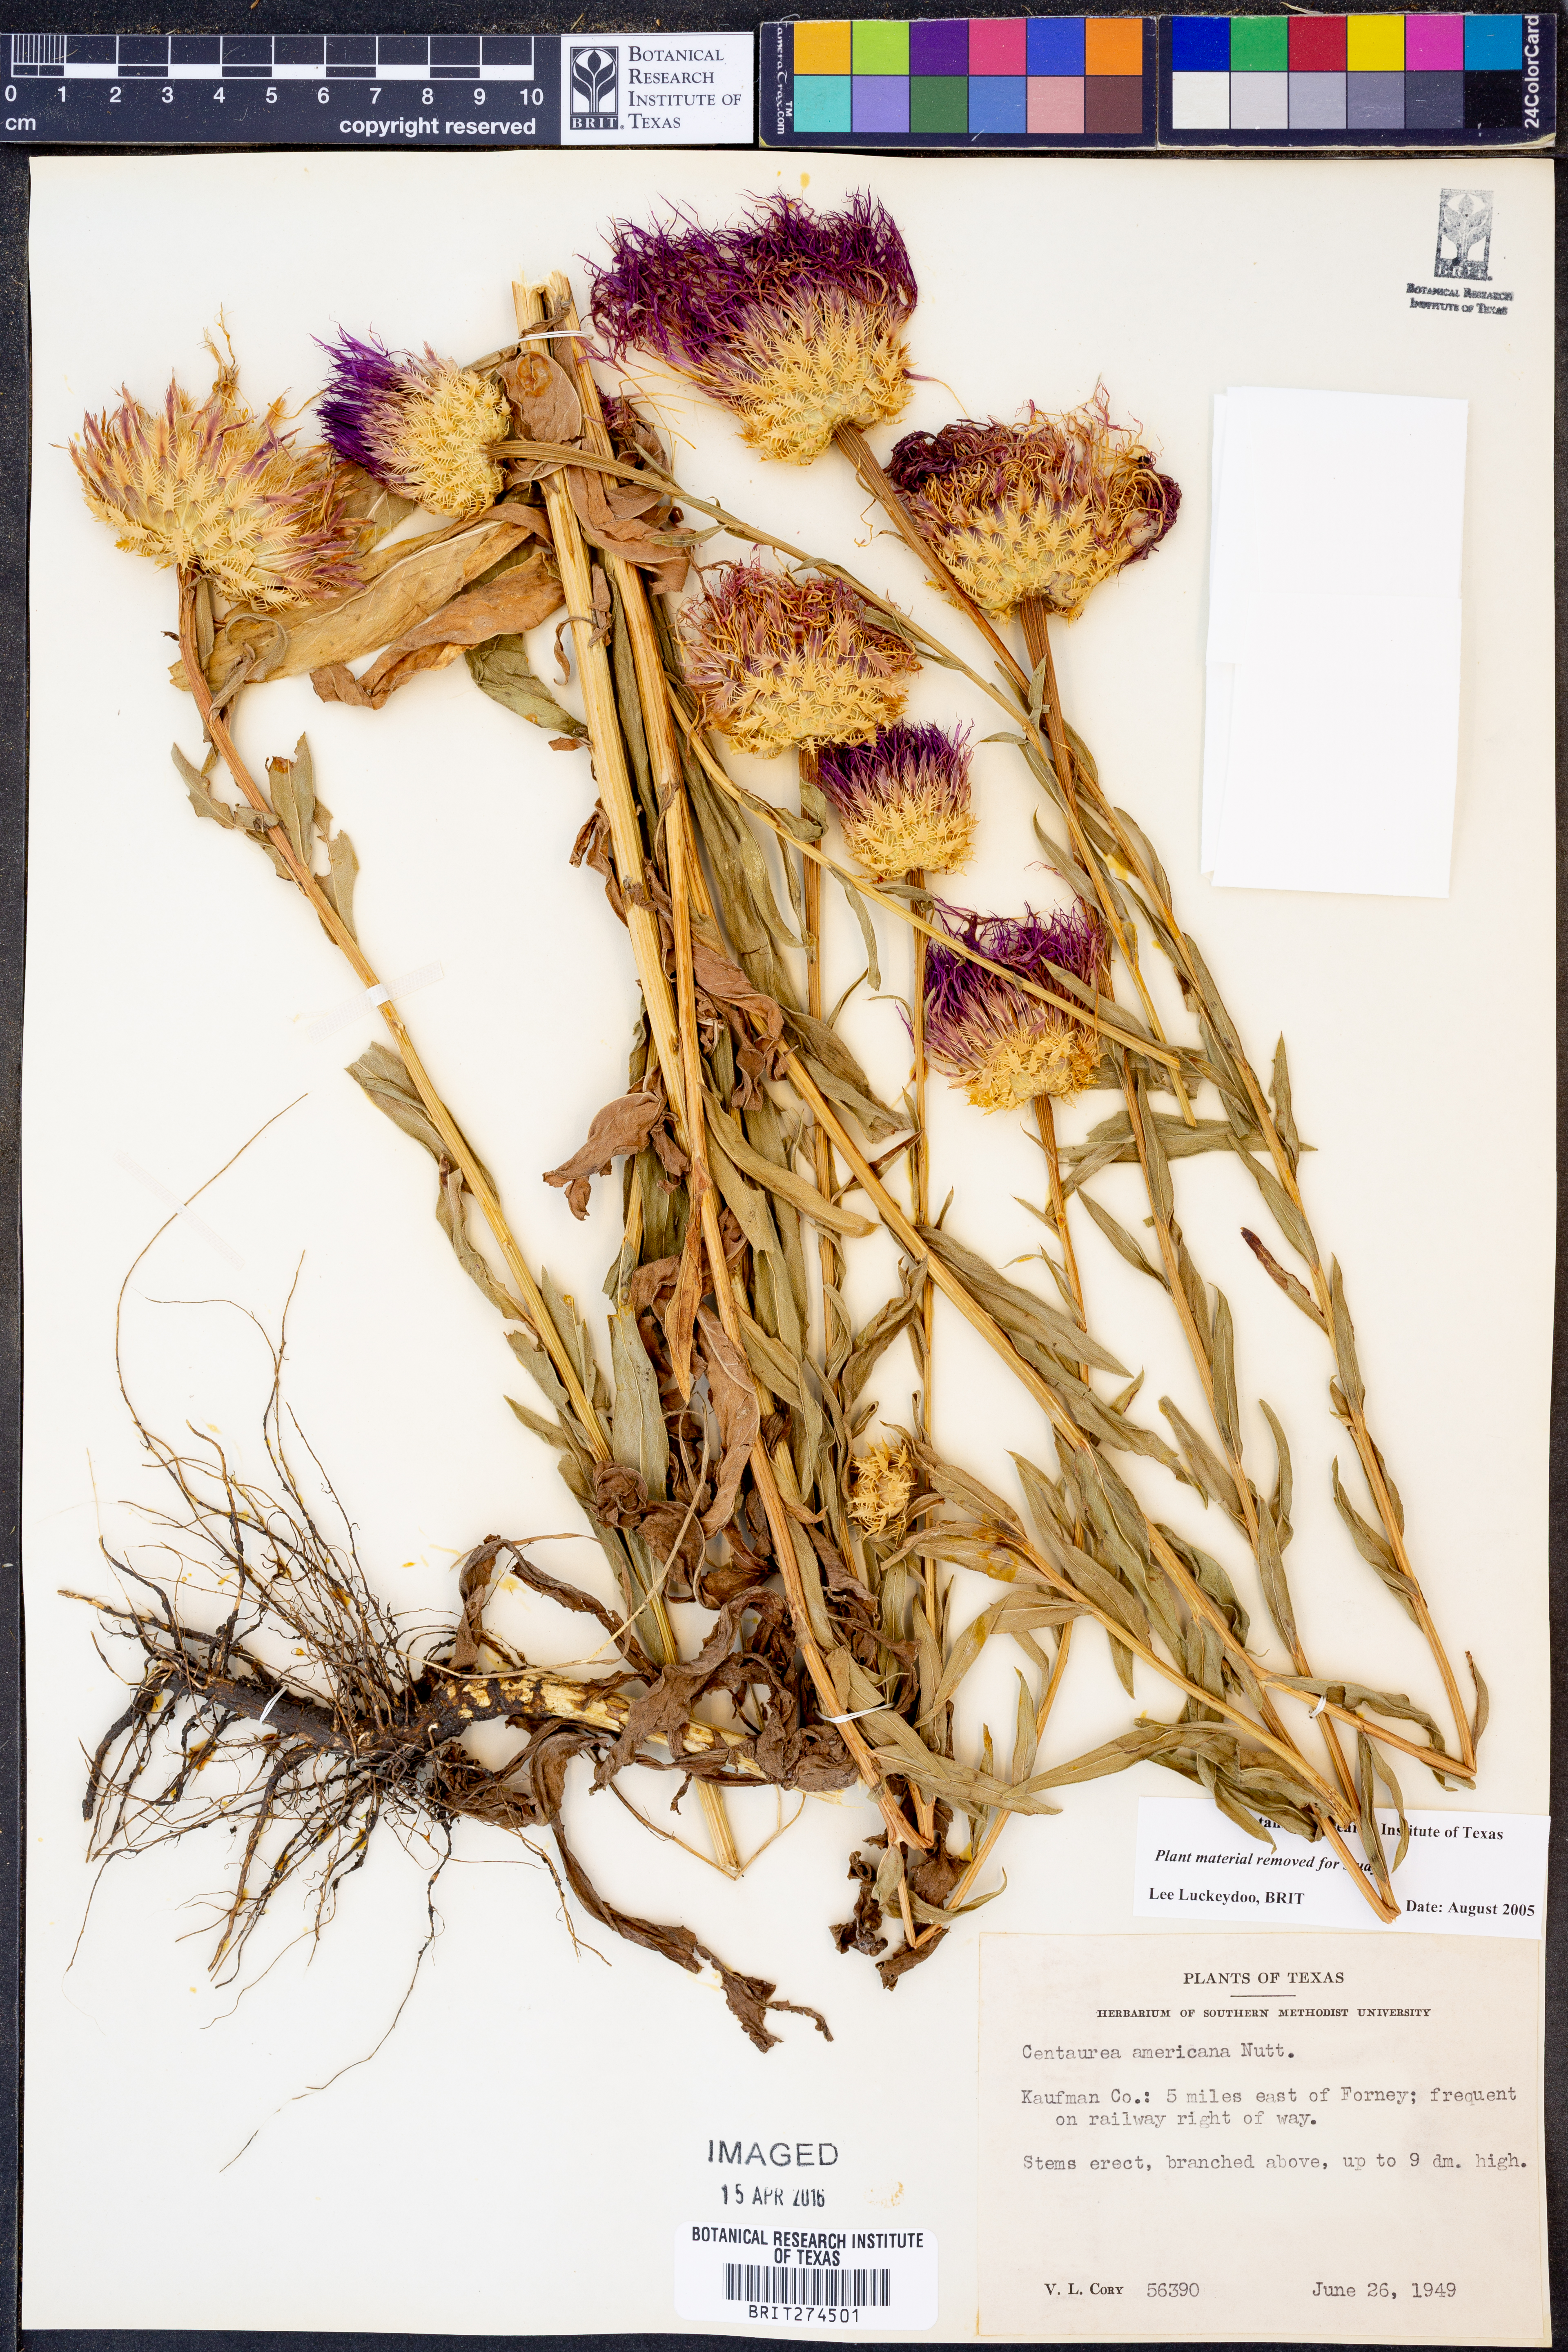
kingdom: Plantae
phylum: Tracheophyta
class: Magnoliopsida
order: Asterales
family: Asteraceae
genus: Plectocephalus
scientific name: Plectocephalus americanus
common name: American basket-flower
